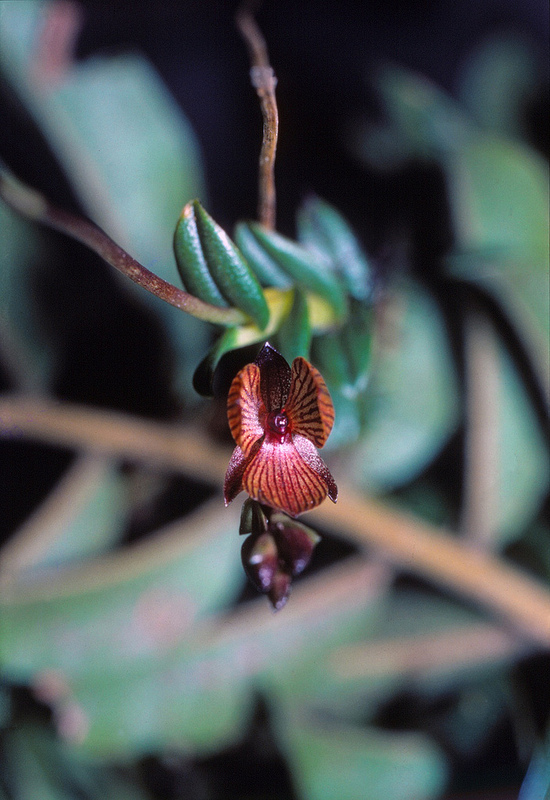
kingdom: Plantae
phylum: Tracheophyta
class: Liliopsida
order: Asparagales
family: Orchidaceae
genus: Telipogon
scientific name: Telipogon venustus
